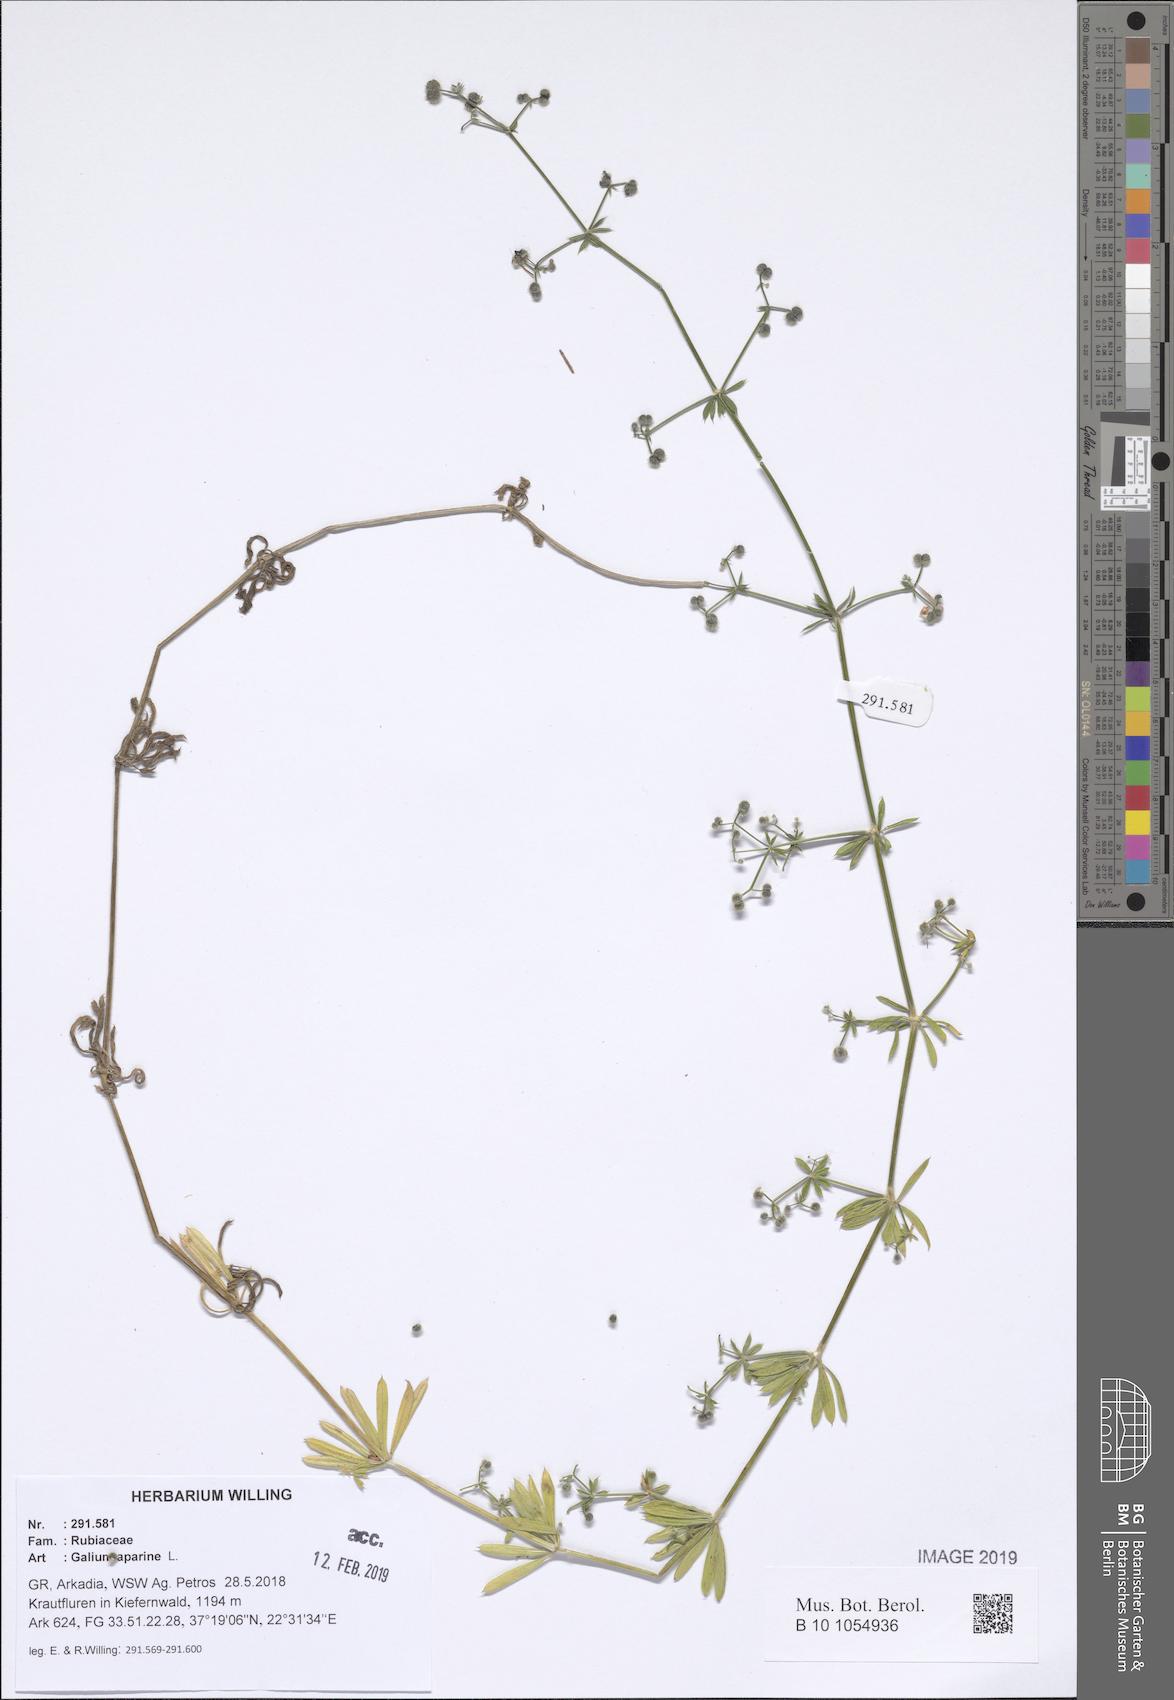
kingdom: Plantae
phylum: Tracheophyta
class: Magnoliopsida
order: Gentianales
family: Rubiaceae
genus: Galium
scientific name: Galium aparine
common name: Cleavers
